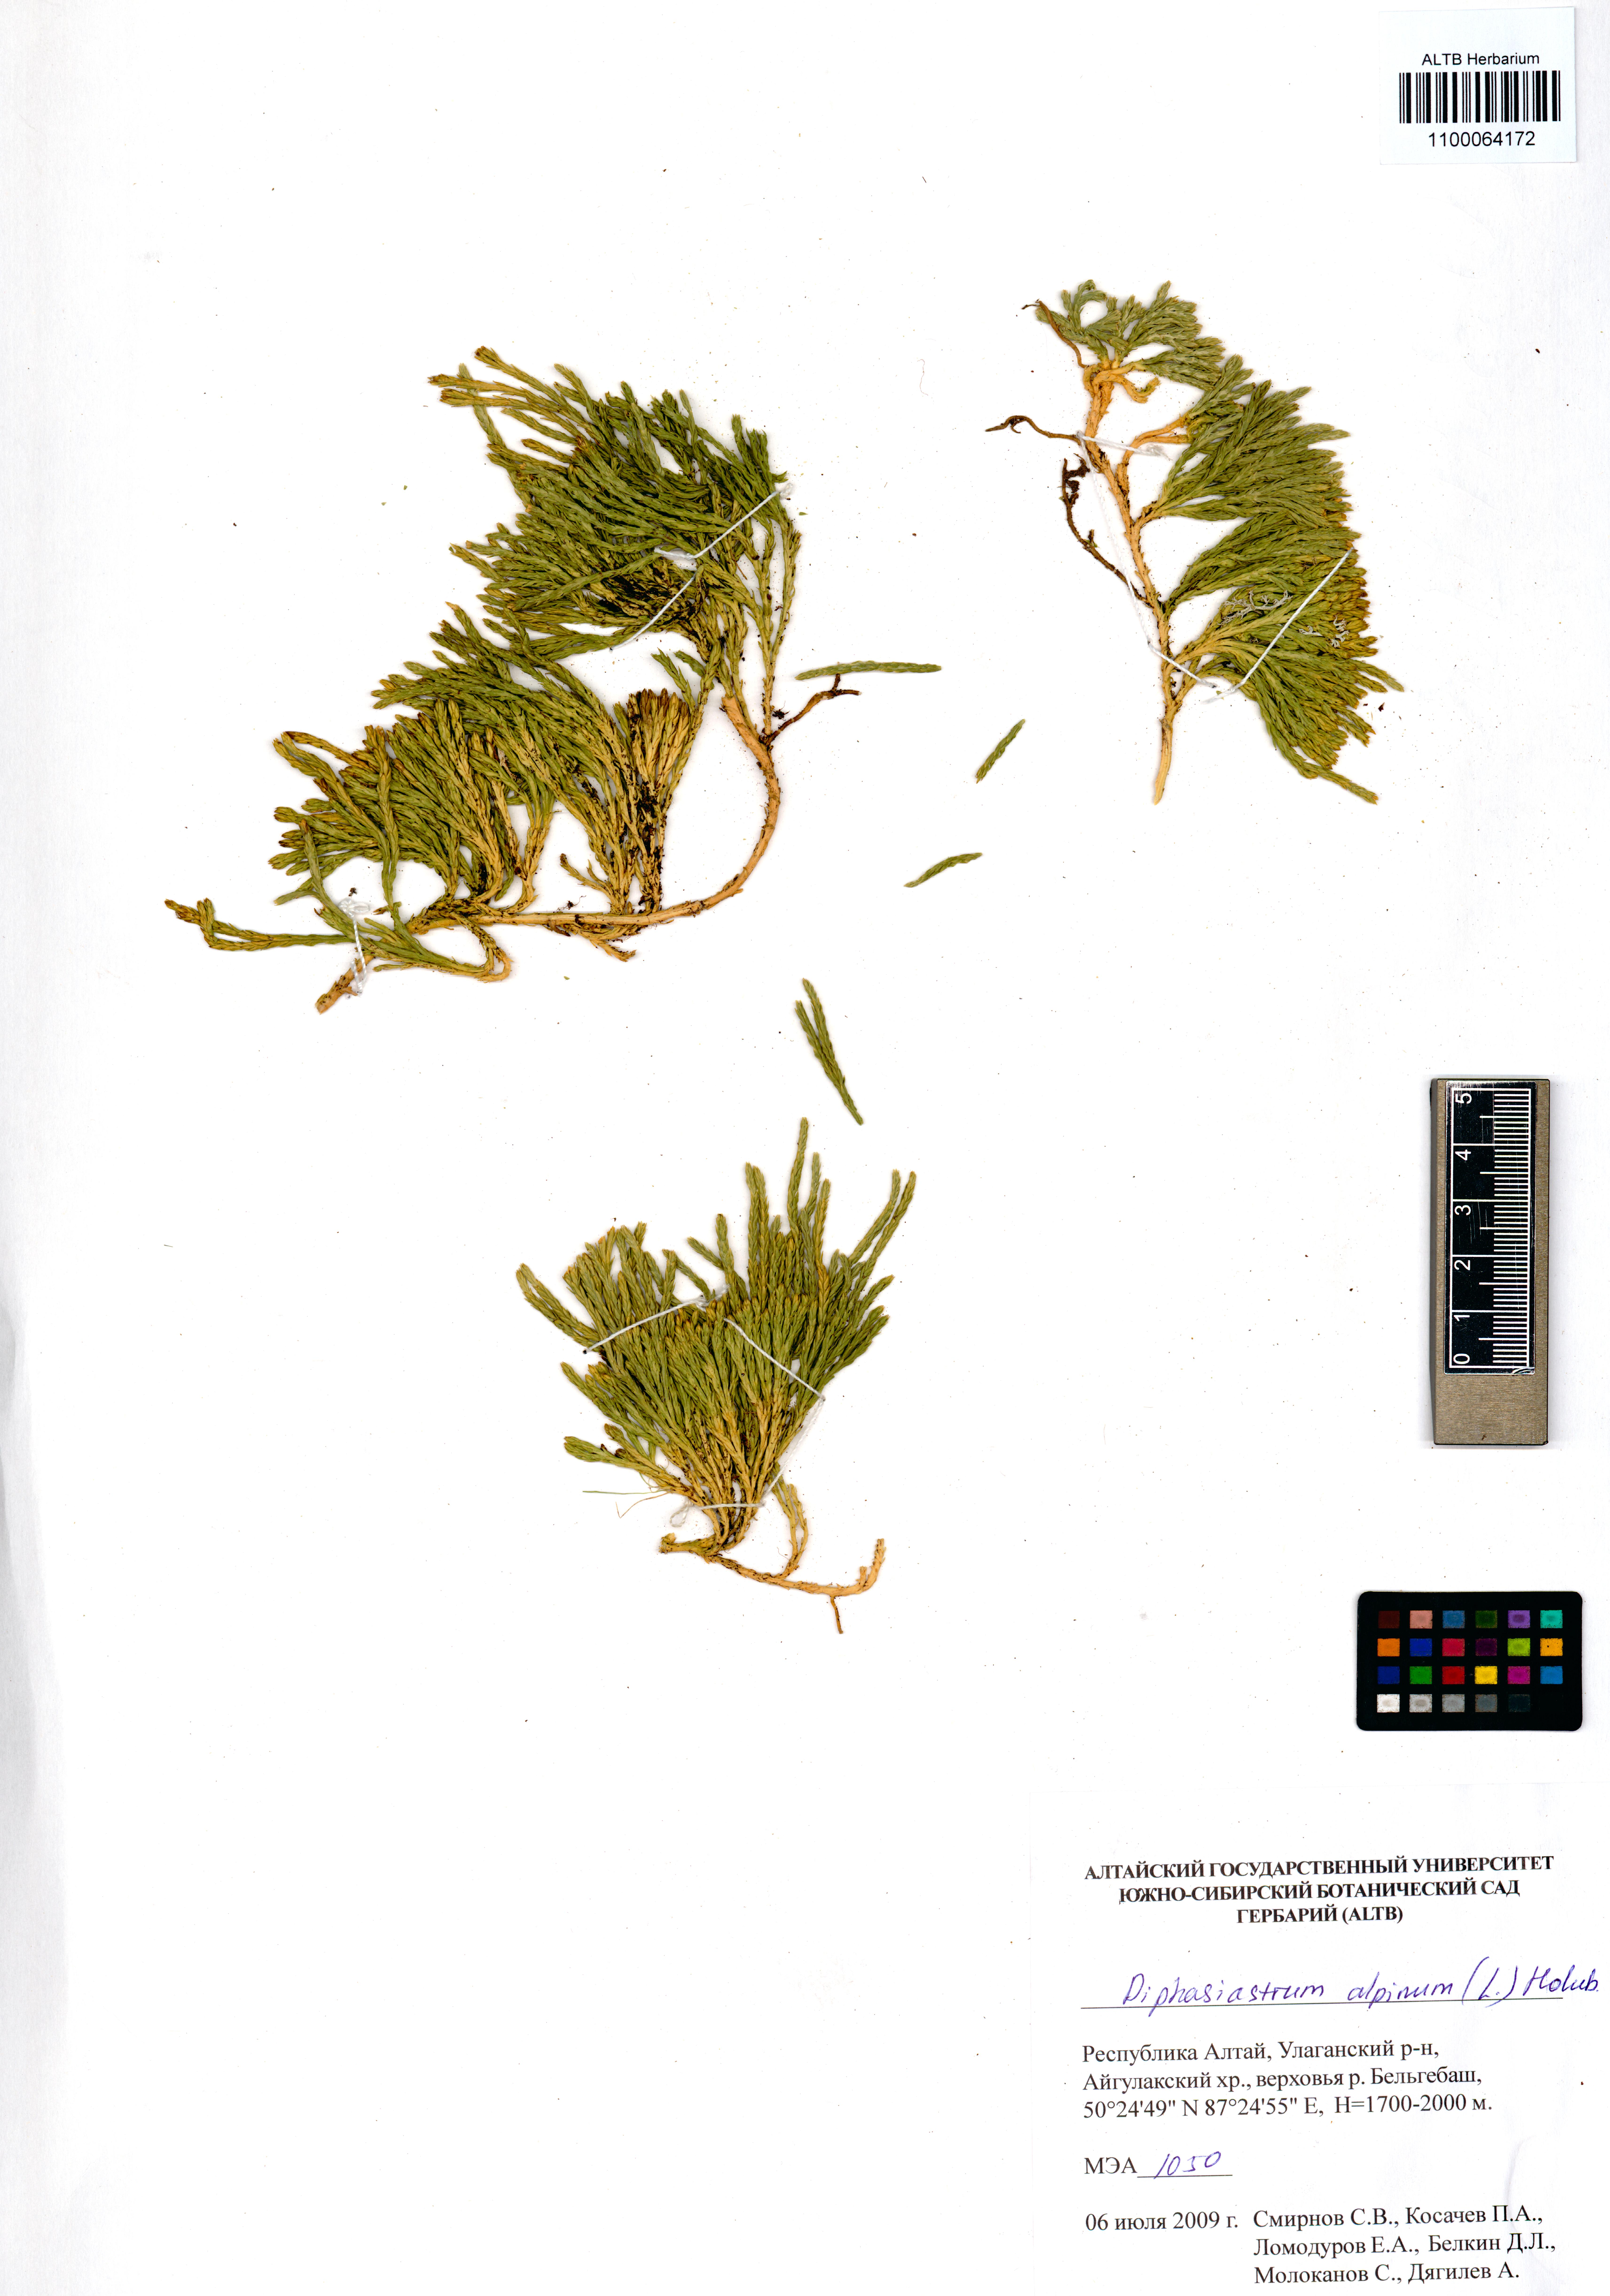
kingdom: Plantae
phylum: Tracheophyta
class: Lycopodiopsida
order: Lycopodiales
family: Lycopodiaceae
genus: Diphasiastrum
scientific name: Diphasiastrum alpinum
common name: Alpine clubmoss
